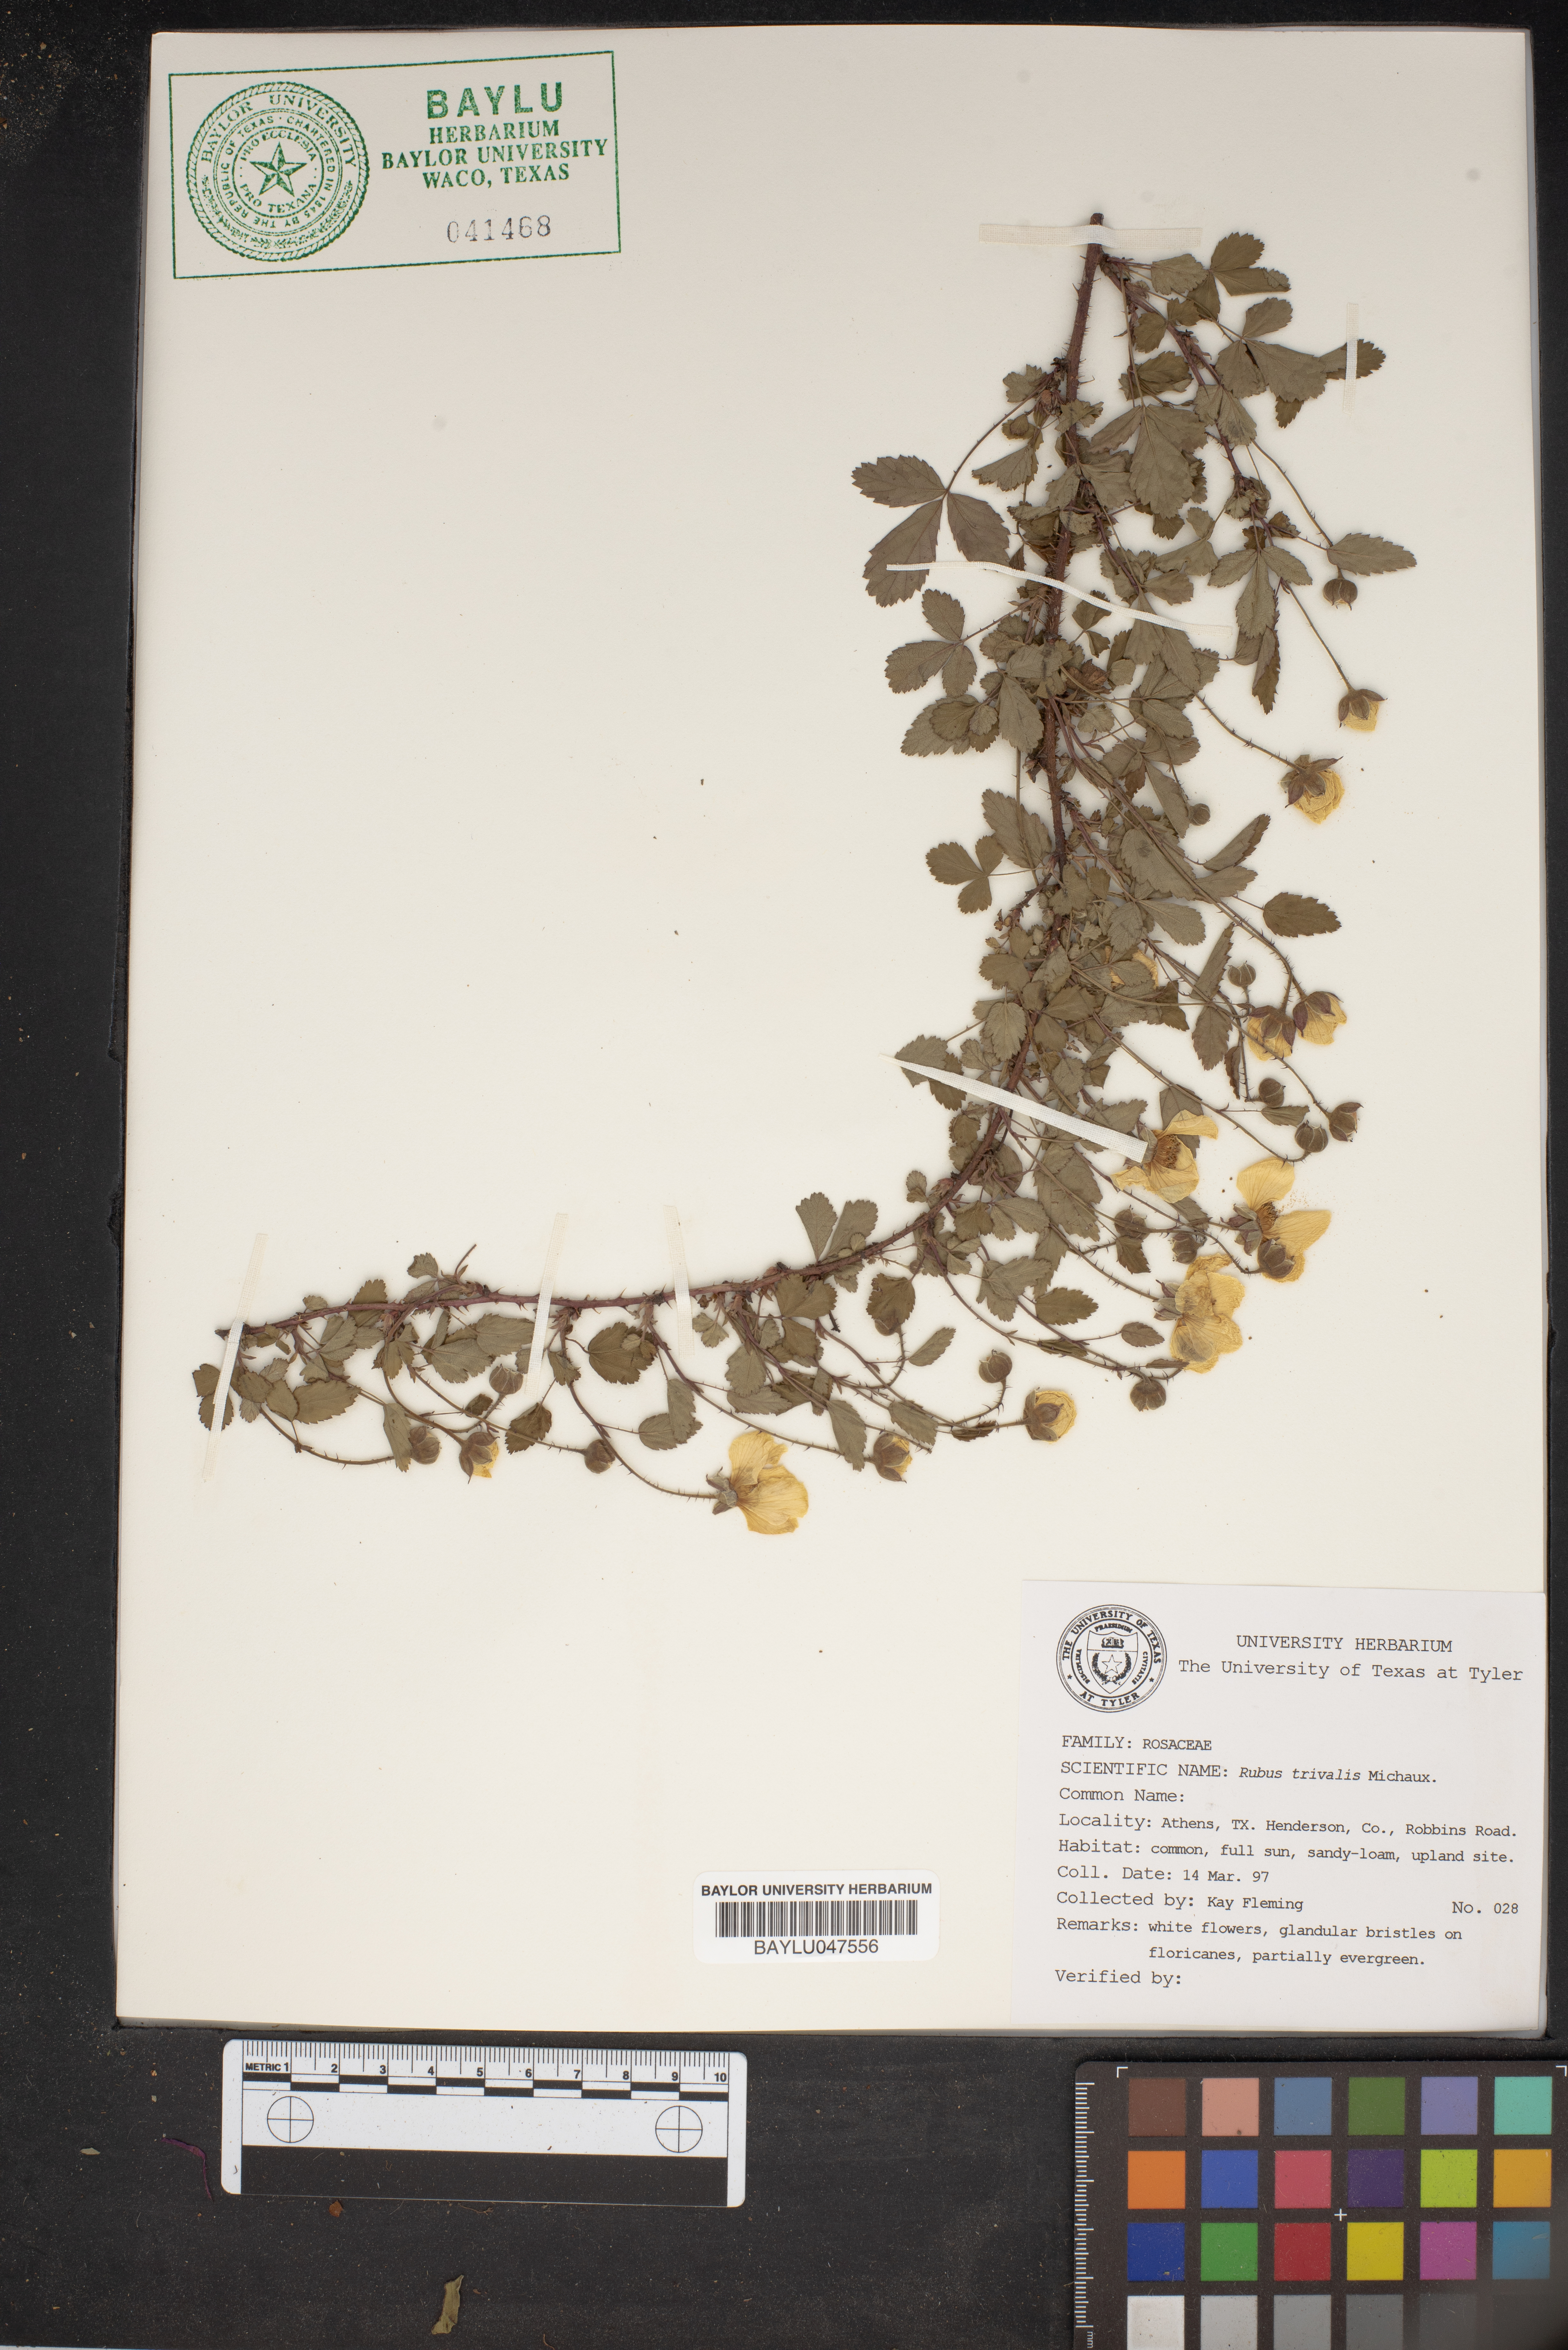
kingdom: Plantae
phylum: Tracheophyta
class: Magnoliopsida
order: Rosales
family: Rosaceae
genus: Rubus
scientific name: Rubus trivialis
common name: Southern dewberry
